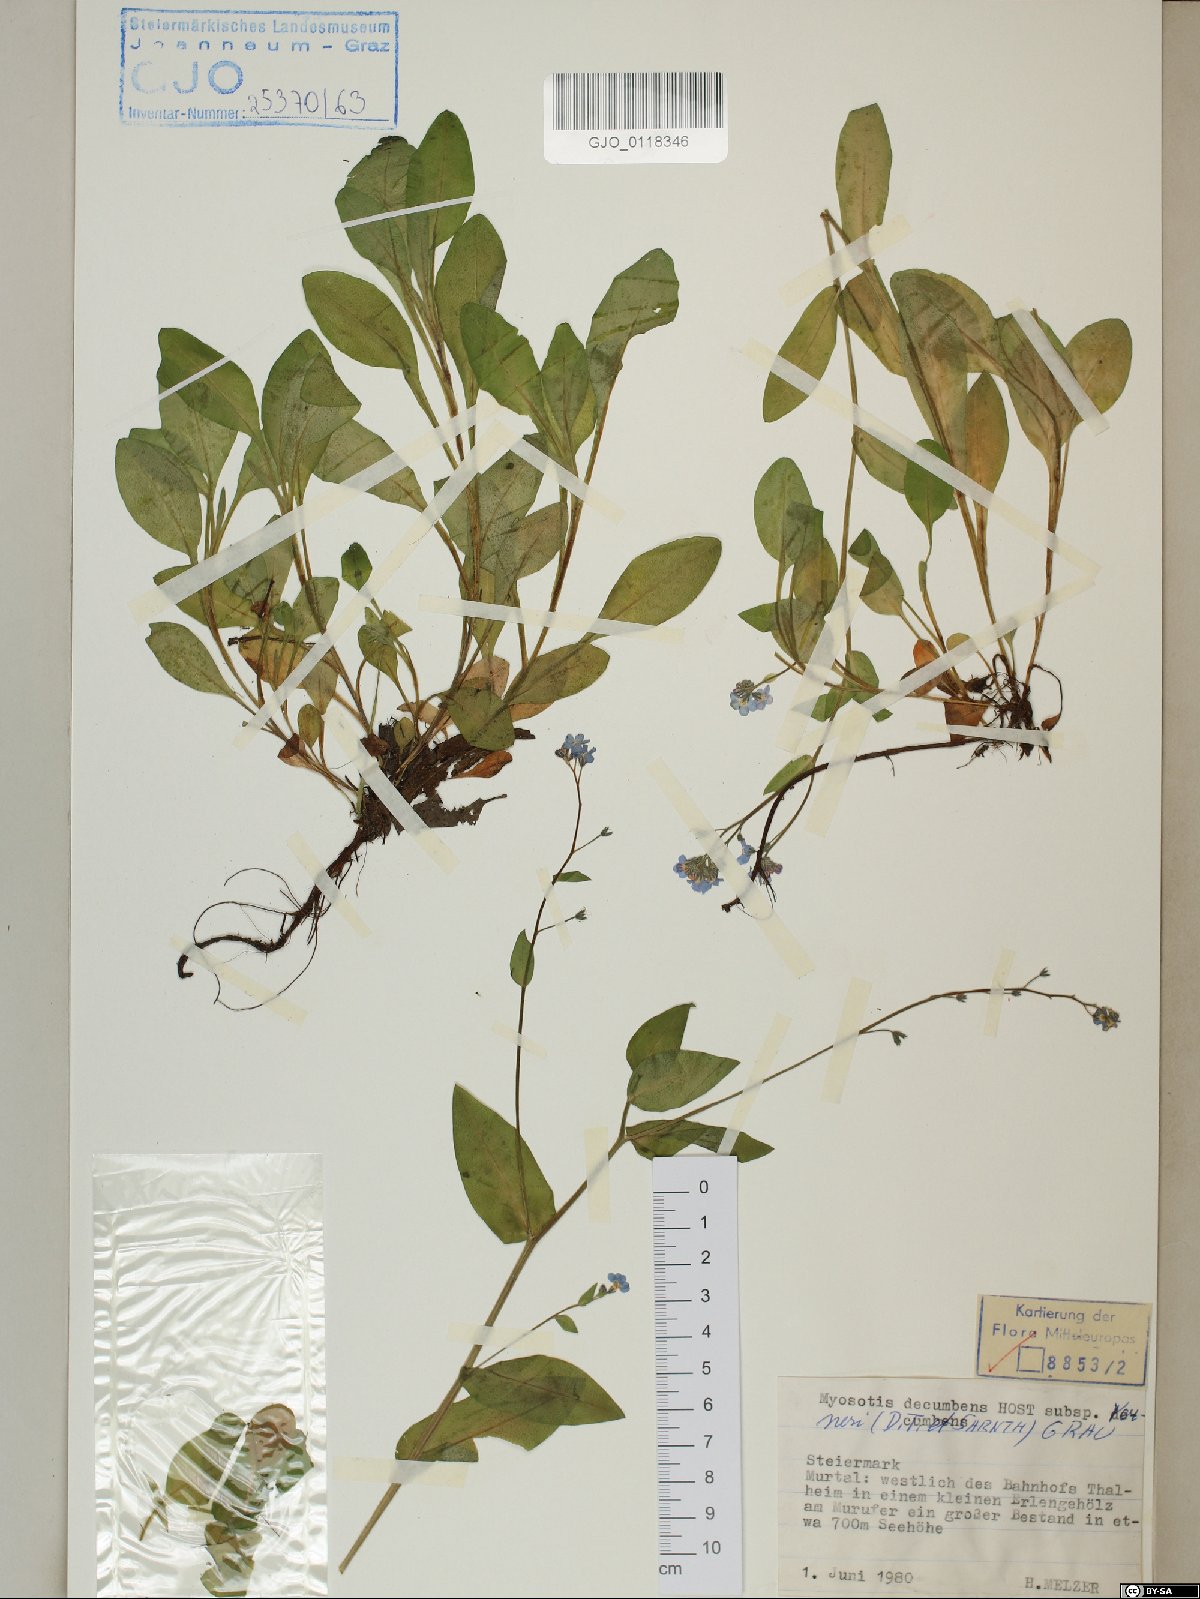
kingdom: Plantae
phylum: Tracheophyta
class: Magnoliopsida
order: Boraginales
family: Boraginaceae
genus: Myosotis
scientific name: Myosotis decumbens
